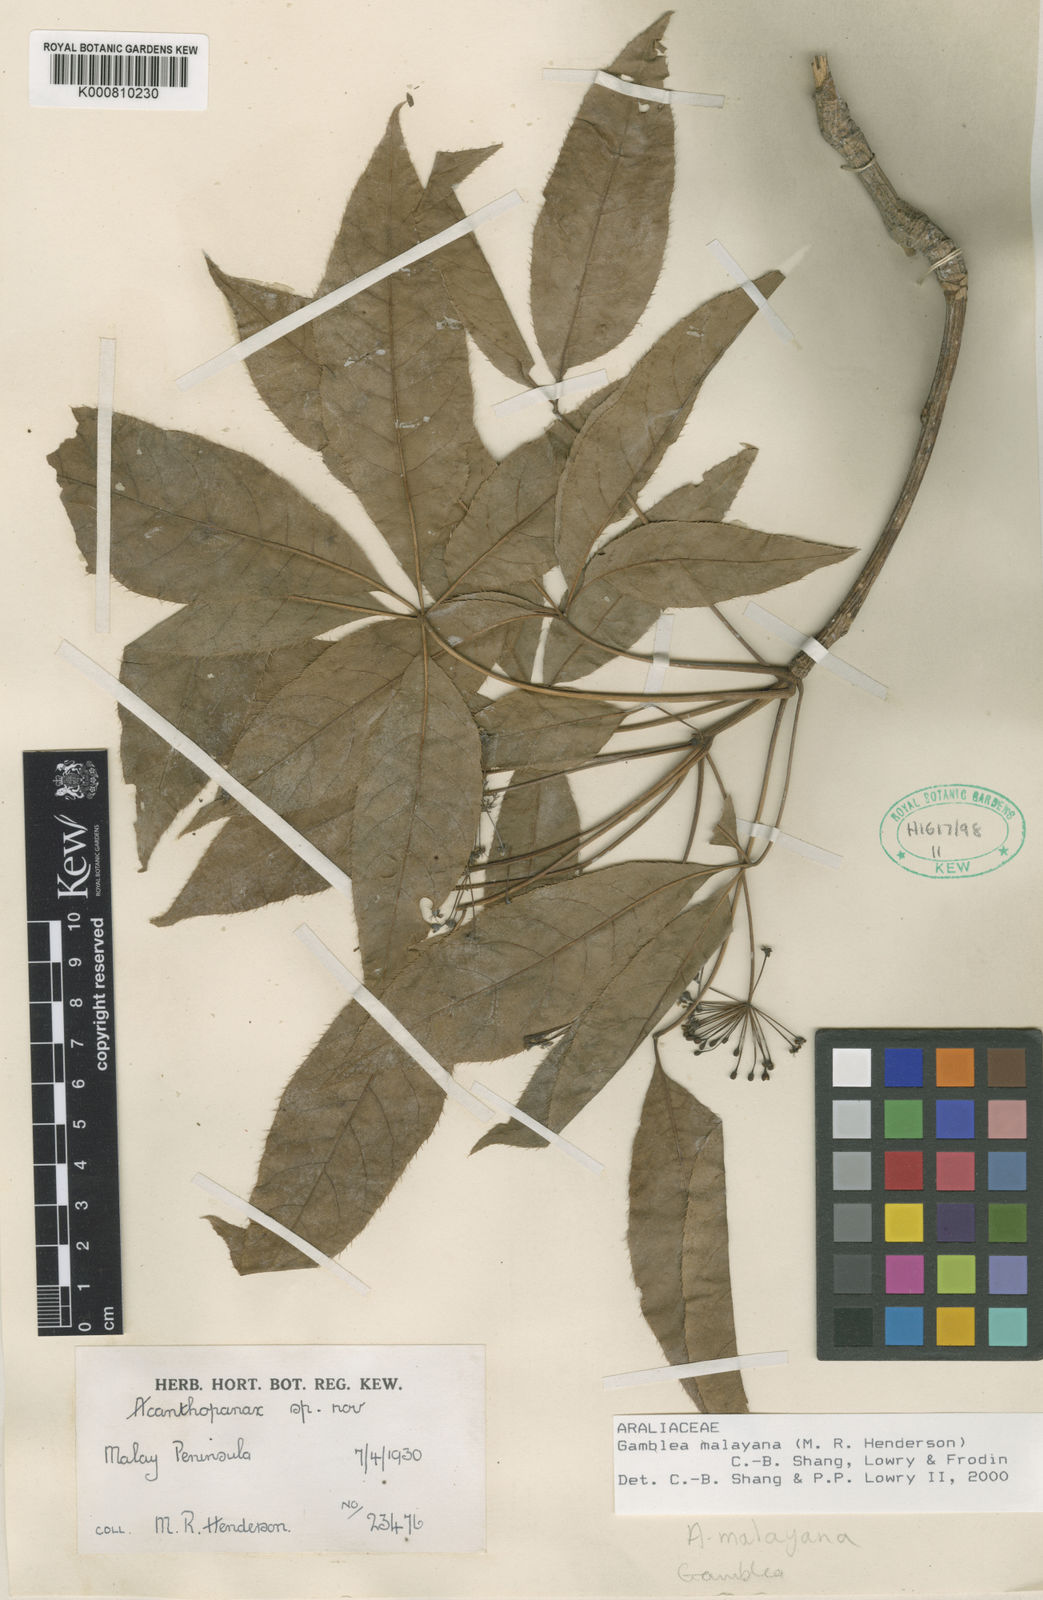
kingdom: Plantae
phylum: Tracheophyta
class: Magnoliopsida
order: Apiales
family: Araliaceae
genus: Gamblea
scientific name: Gamblea malayana
